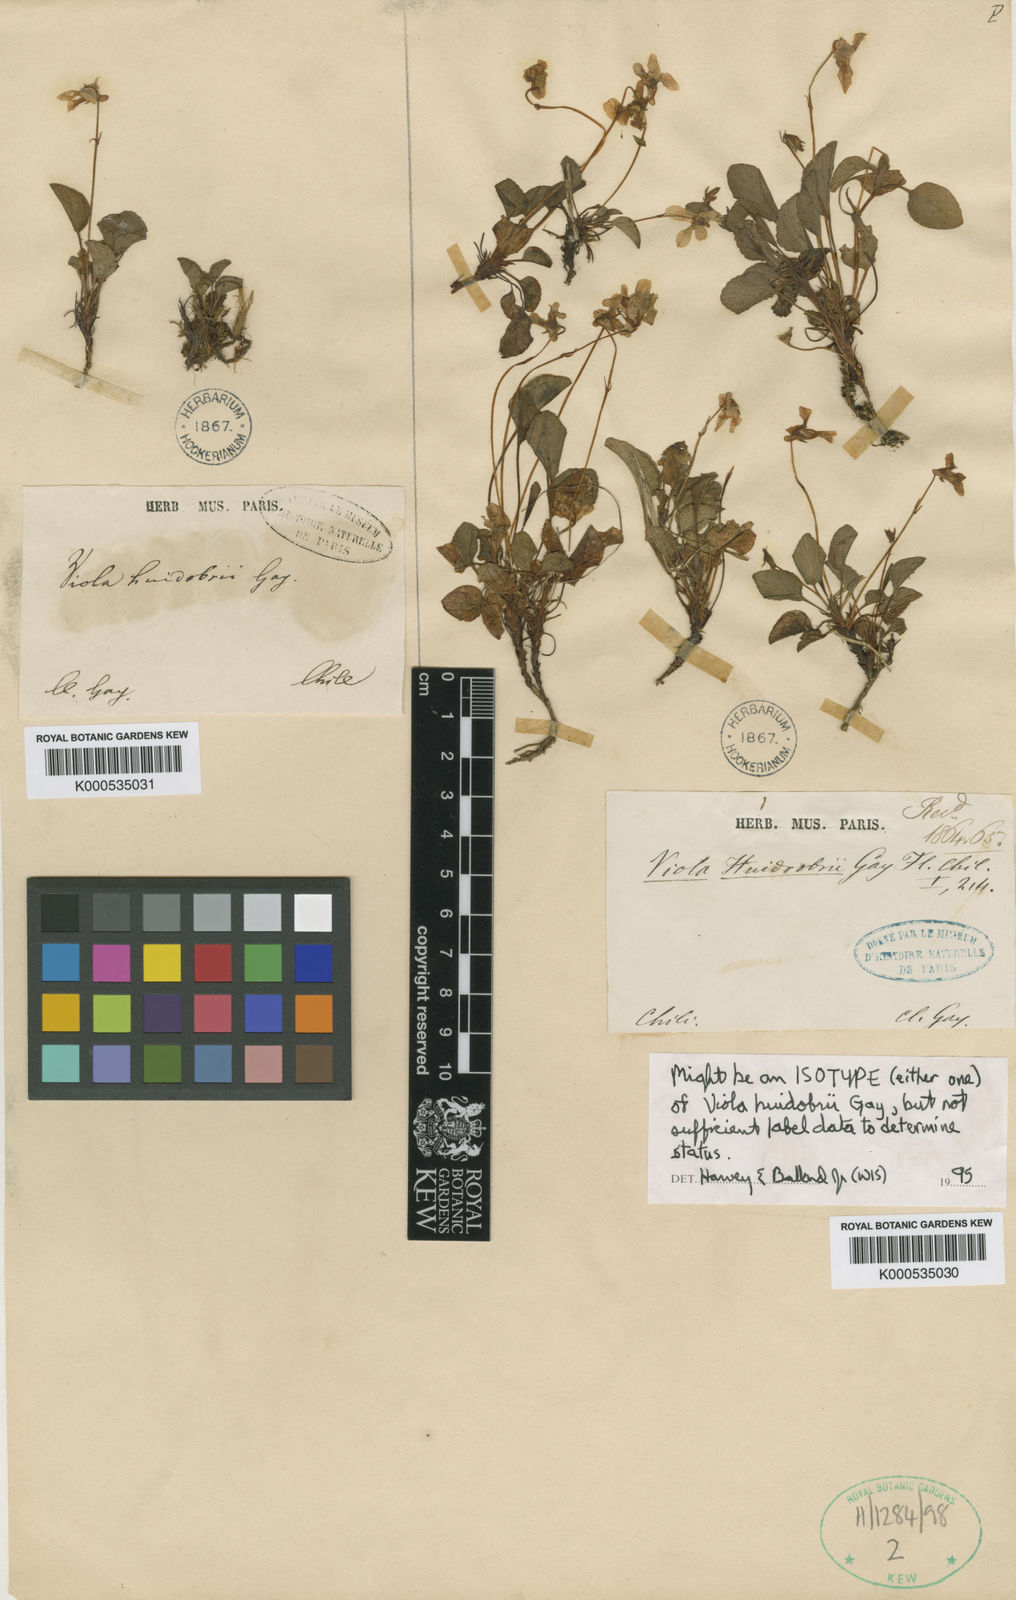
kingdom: Plantae
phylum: Tracheophyta
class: Magnoliopsida
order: Malpighiales
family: Violaceae
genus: Viola
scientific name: Viola huidobrii
